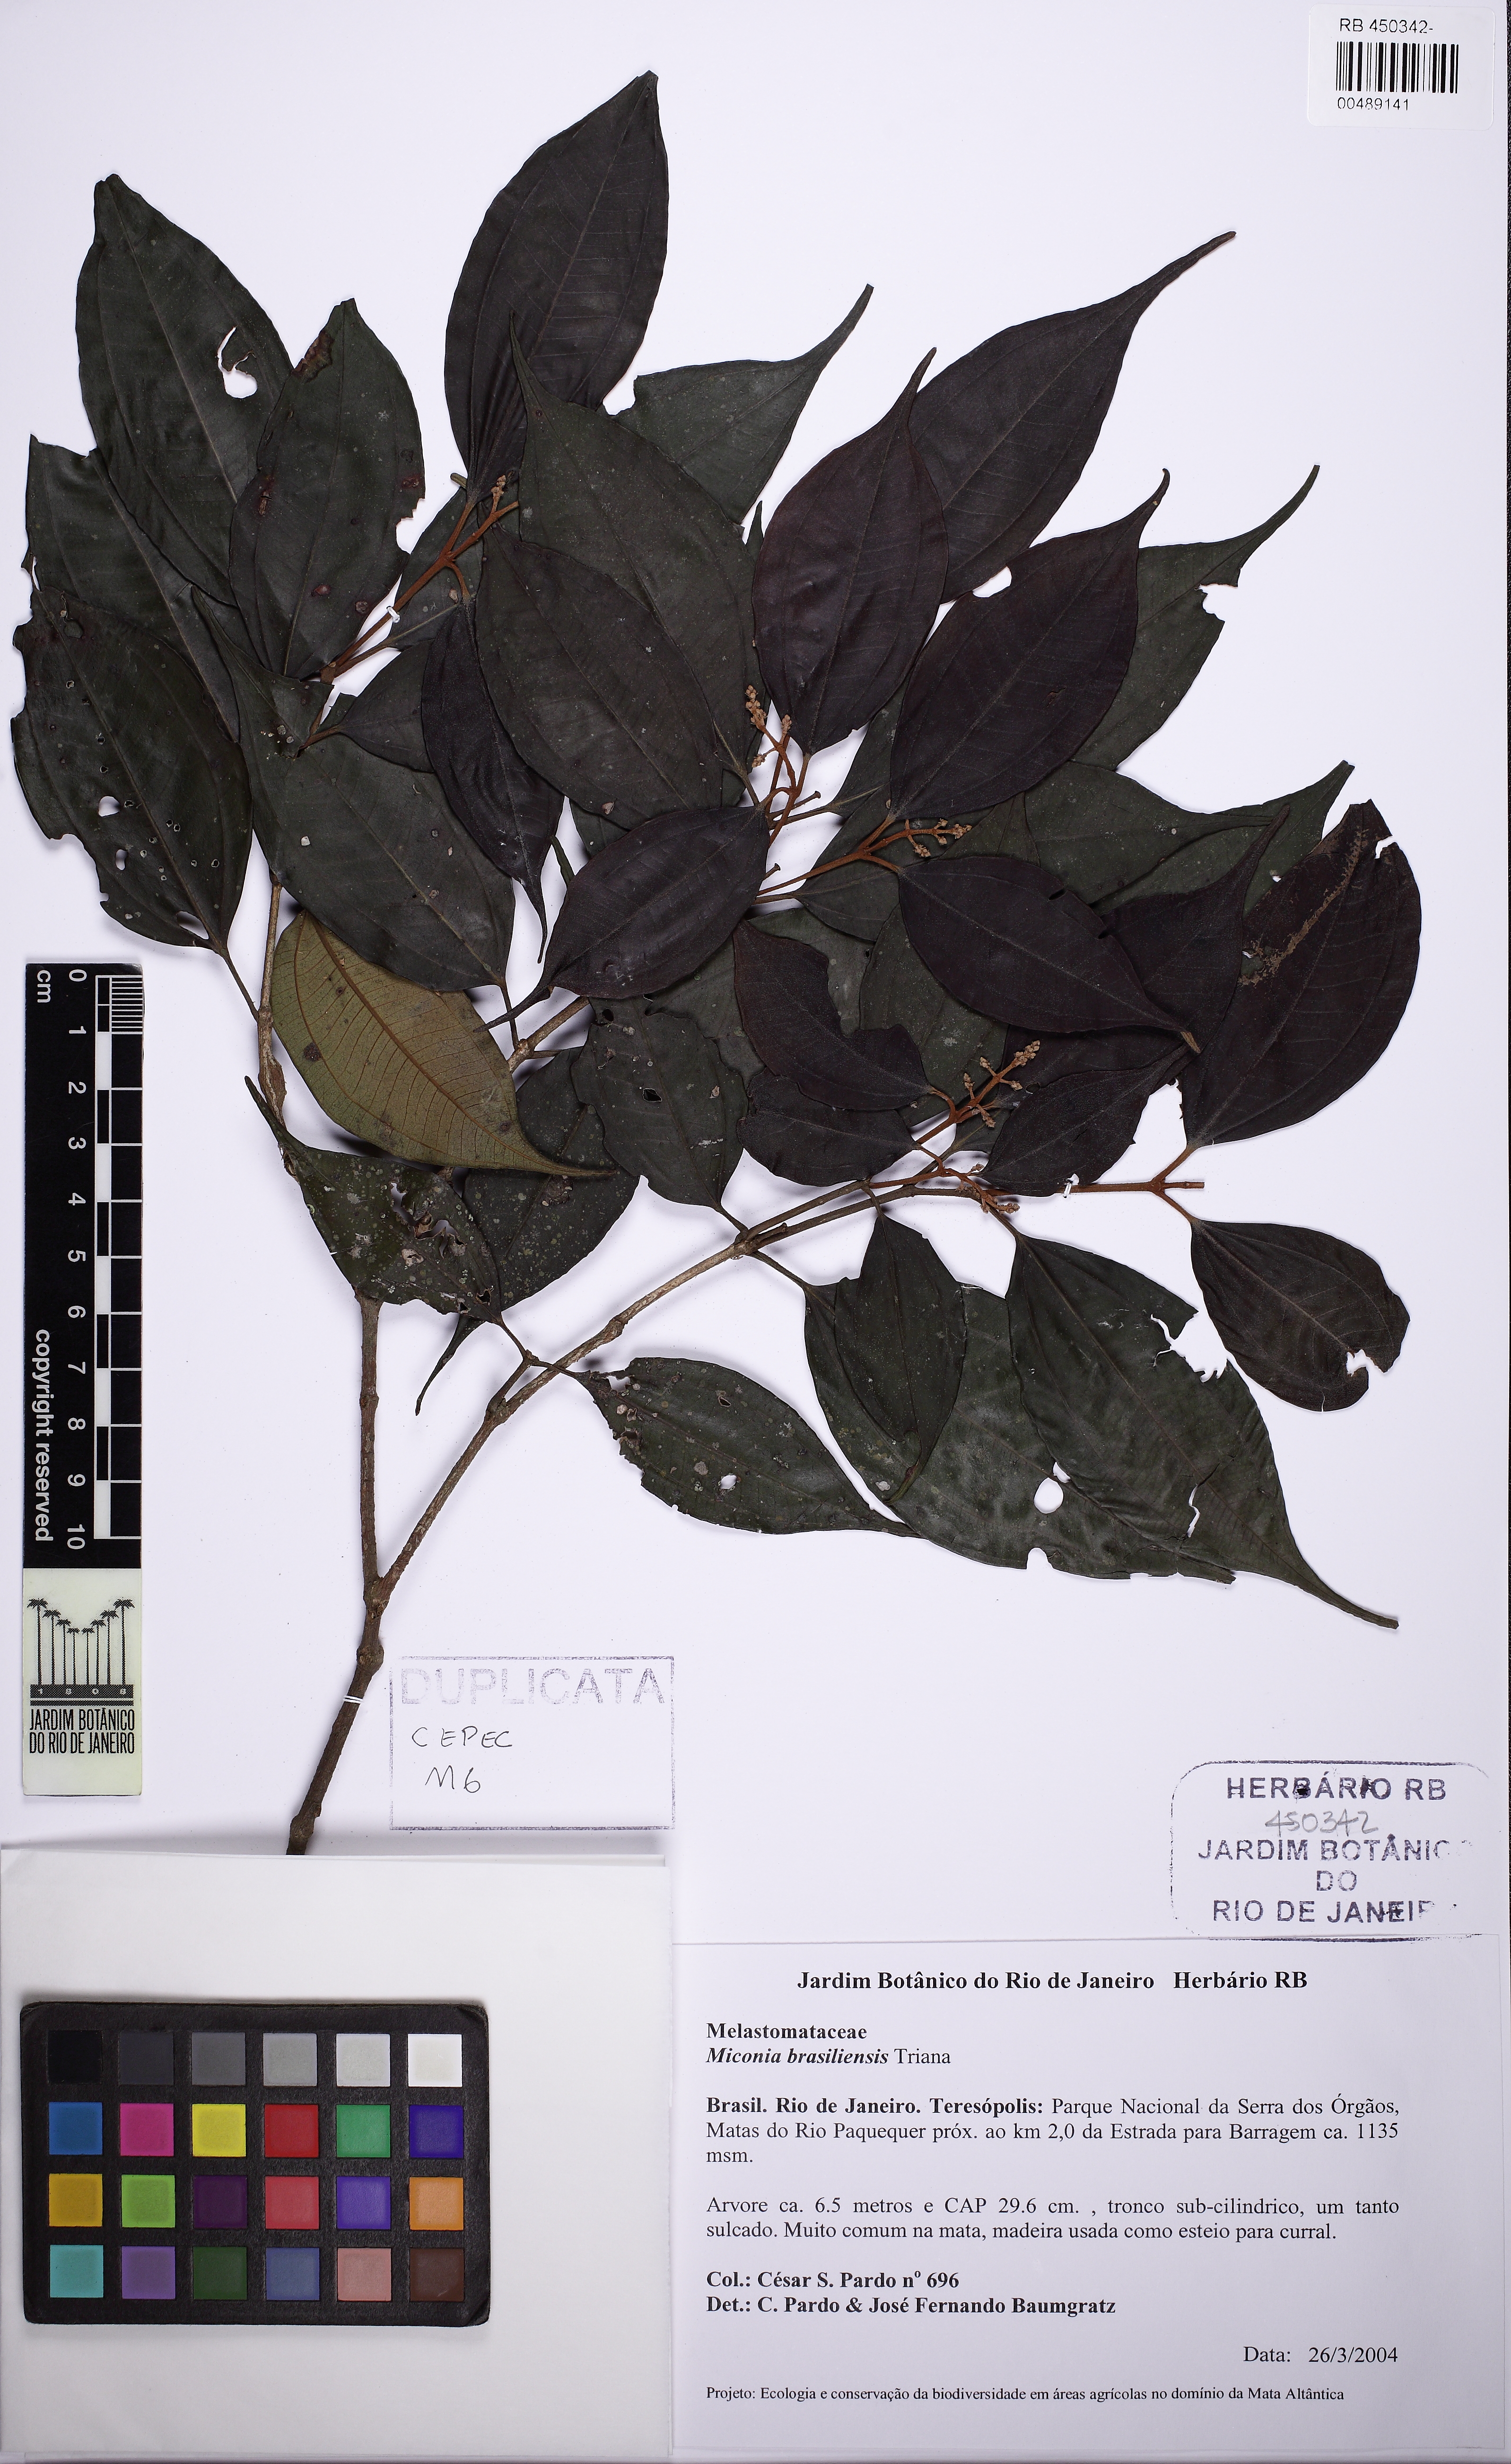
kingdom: Plantae
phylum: Tracheophyta
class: Magnoliopsida
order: Myrtales
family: Melastomataceae
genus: Miconia
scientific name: Miconia brasiliensis
